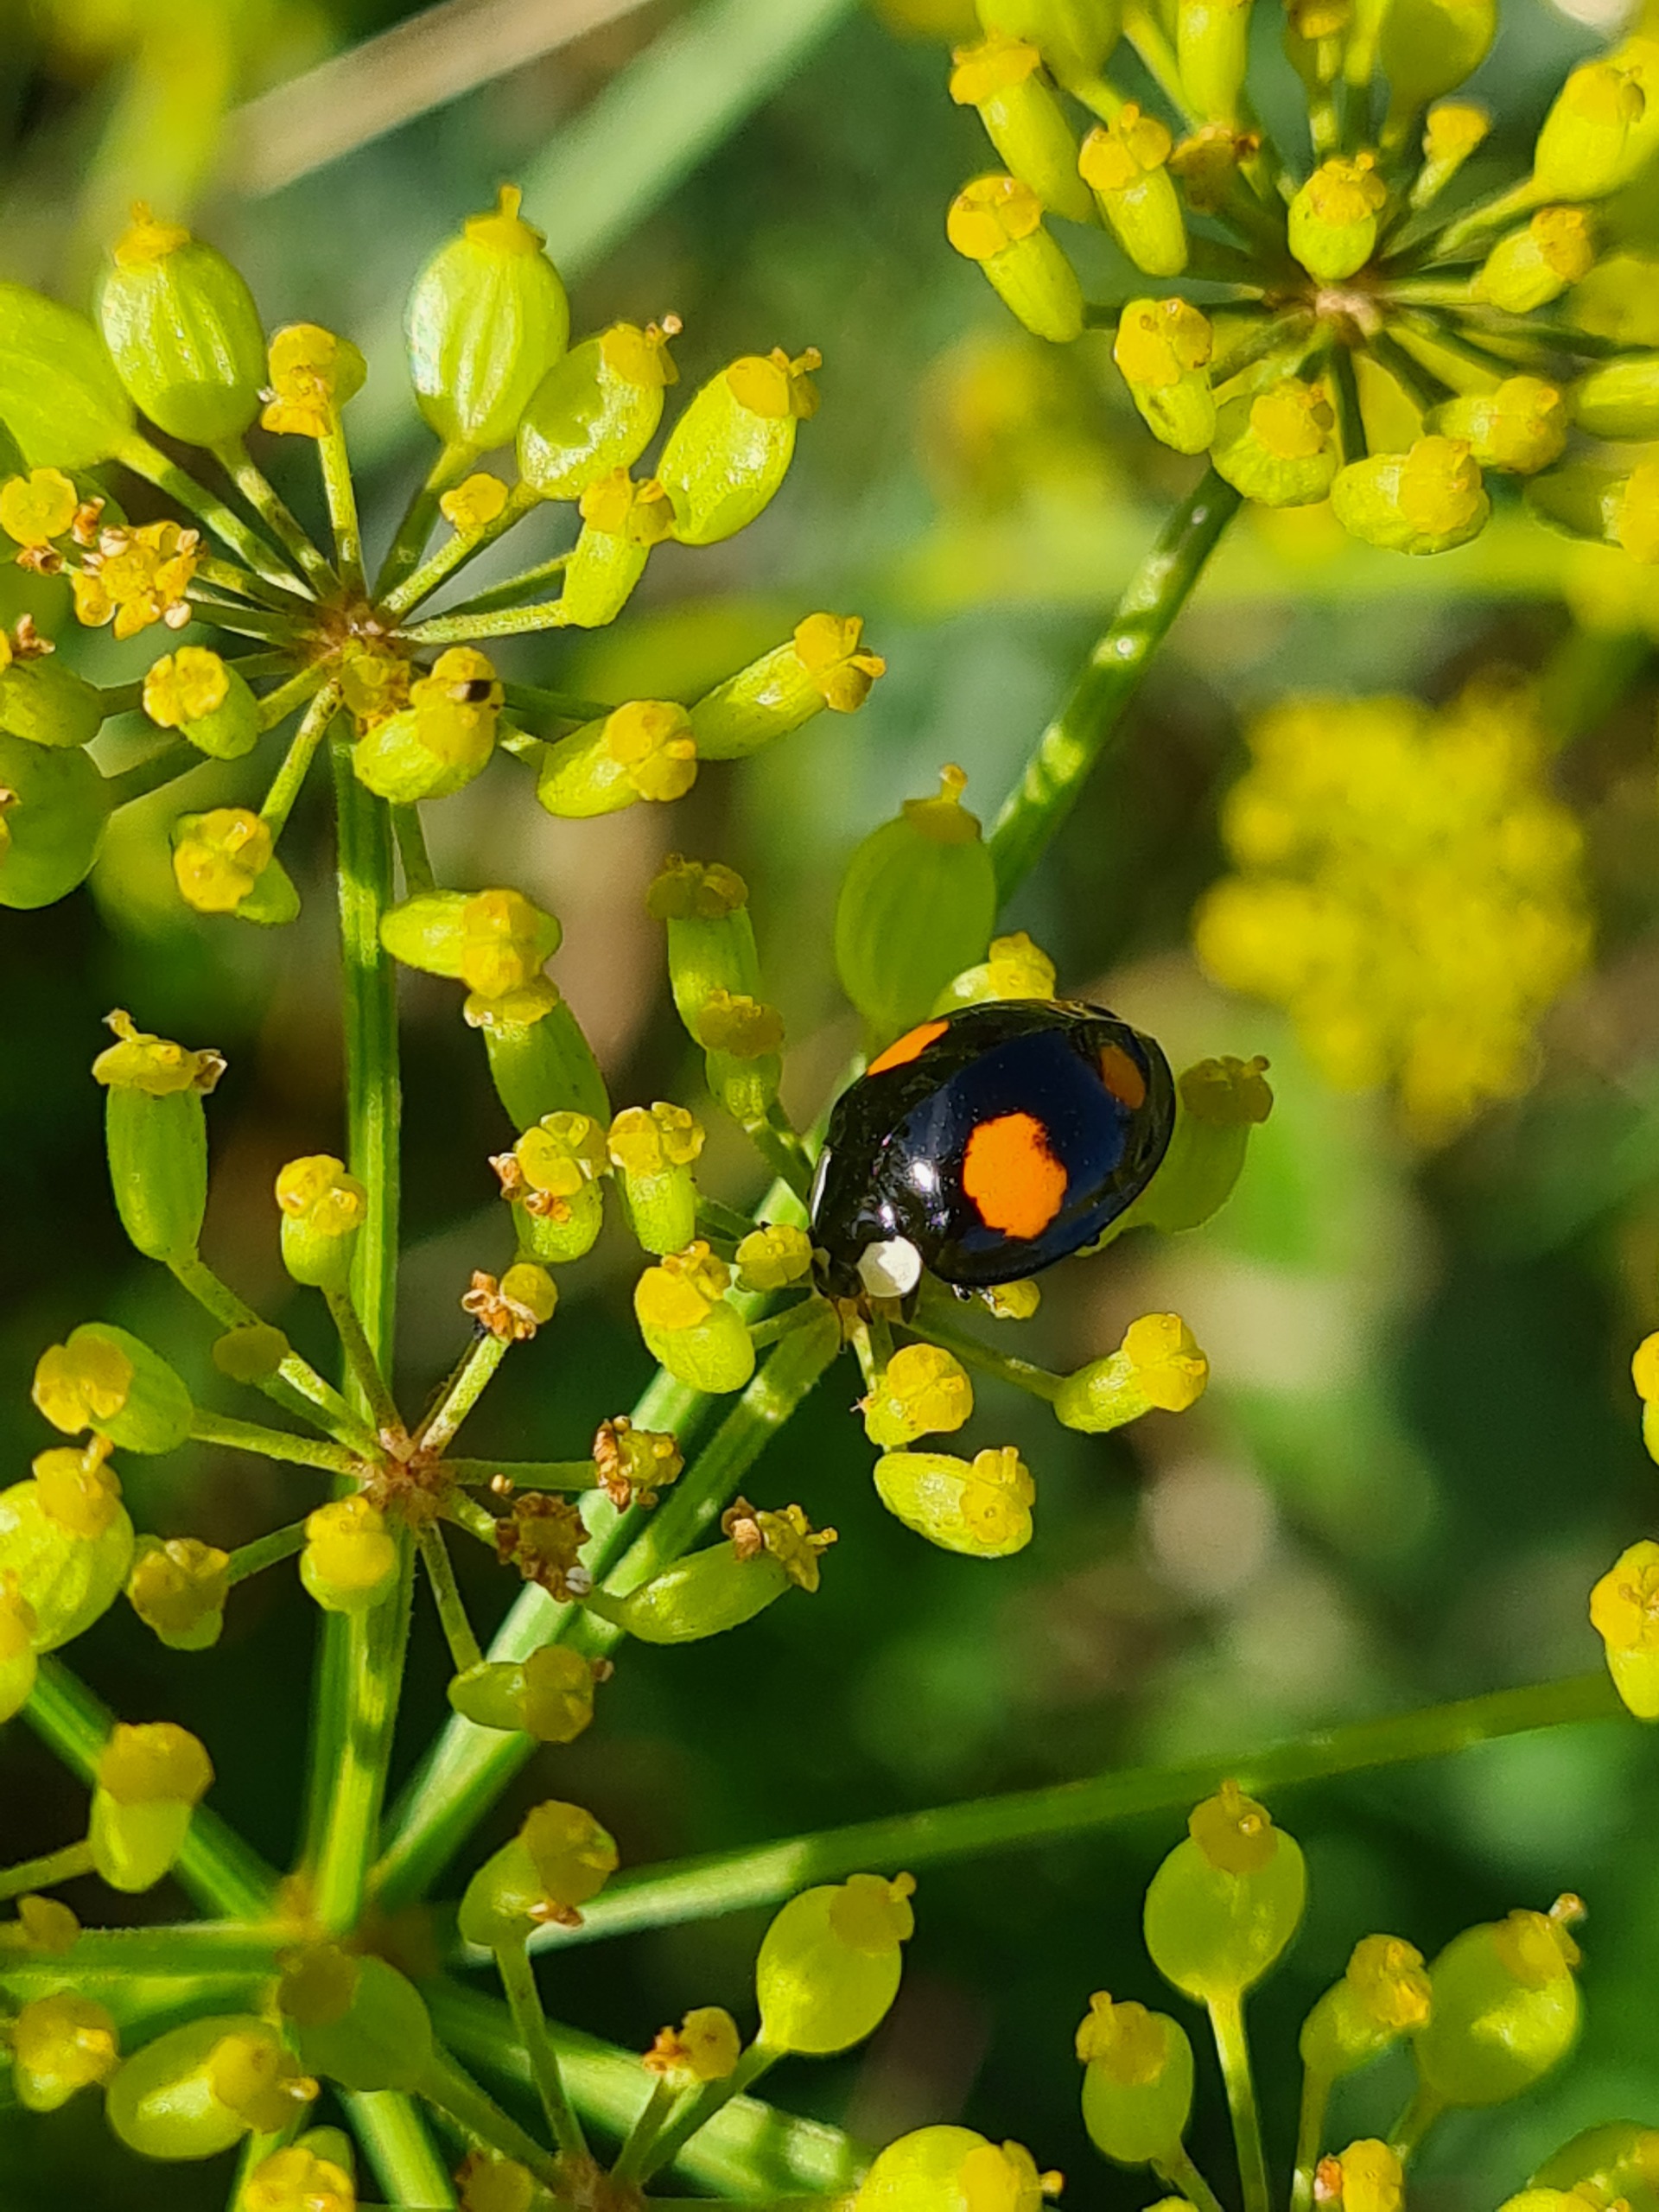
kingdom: Animalia
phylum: Arthropoda
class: Insecta
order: Coleoptera
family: Coccinellidae
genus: Harmonia
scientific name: Harmonia axyridis
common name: Harlekinmariehøne
